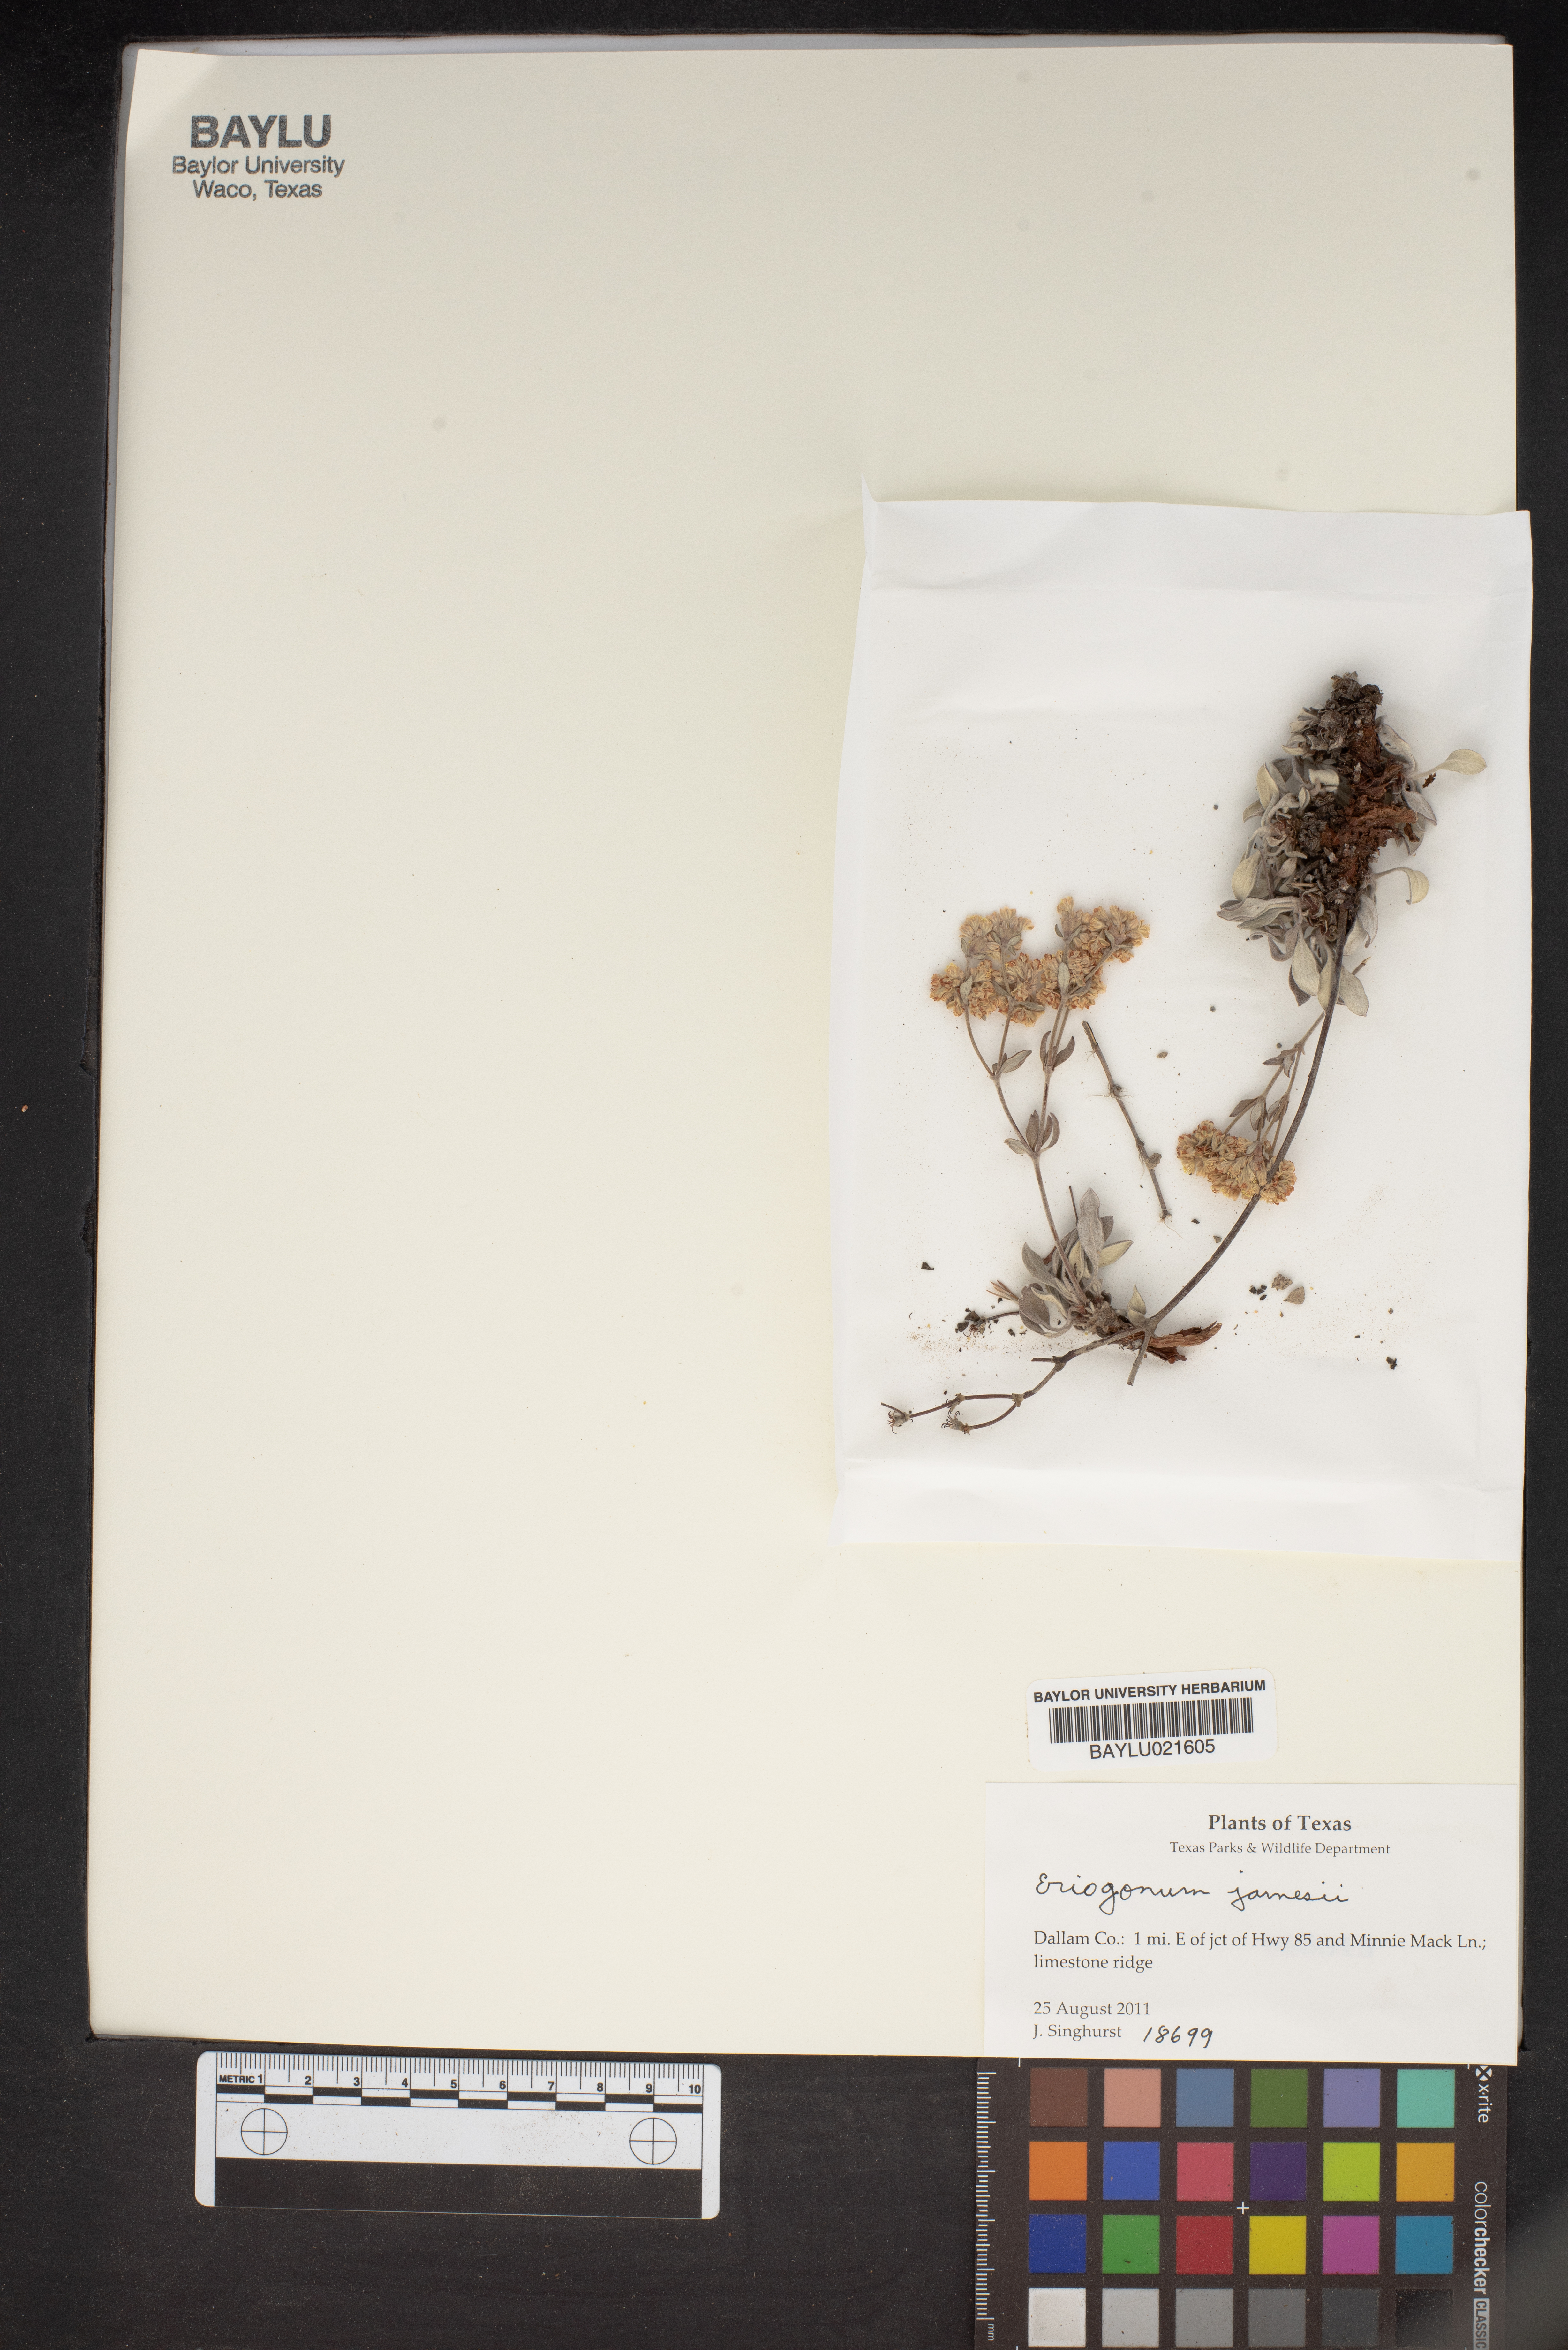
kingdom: Plantae
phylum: Tracheophyta
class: Magnoliopsida
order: Caryophyllales
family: Polygonaceae
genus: Eriogonum
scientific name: Eriogonum jamesii
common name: Antelope-sage
